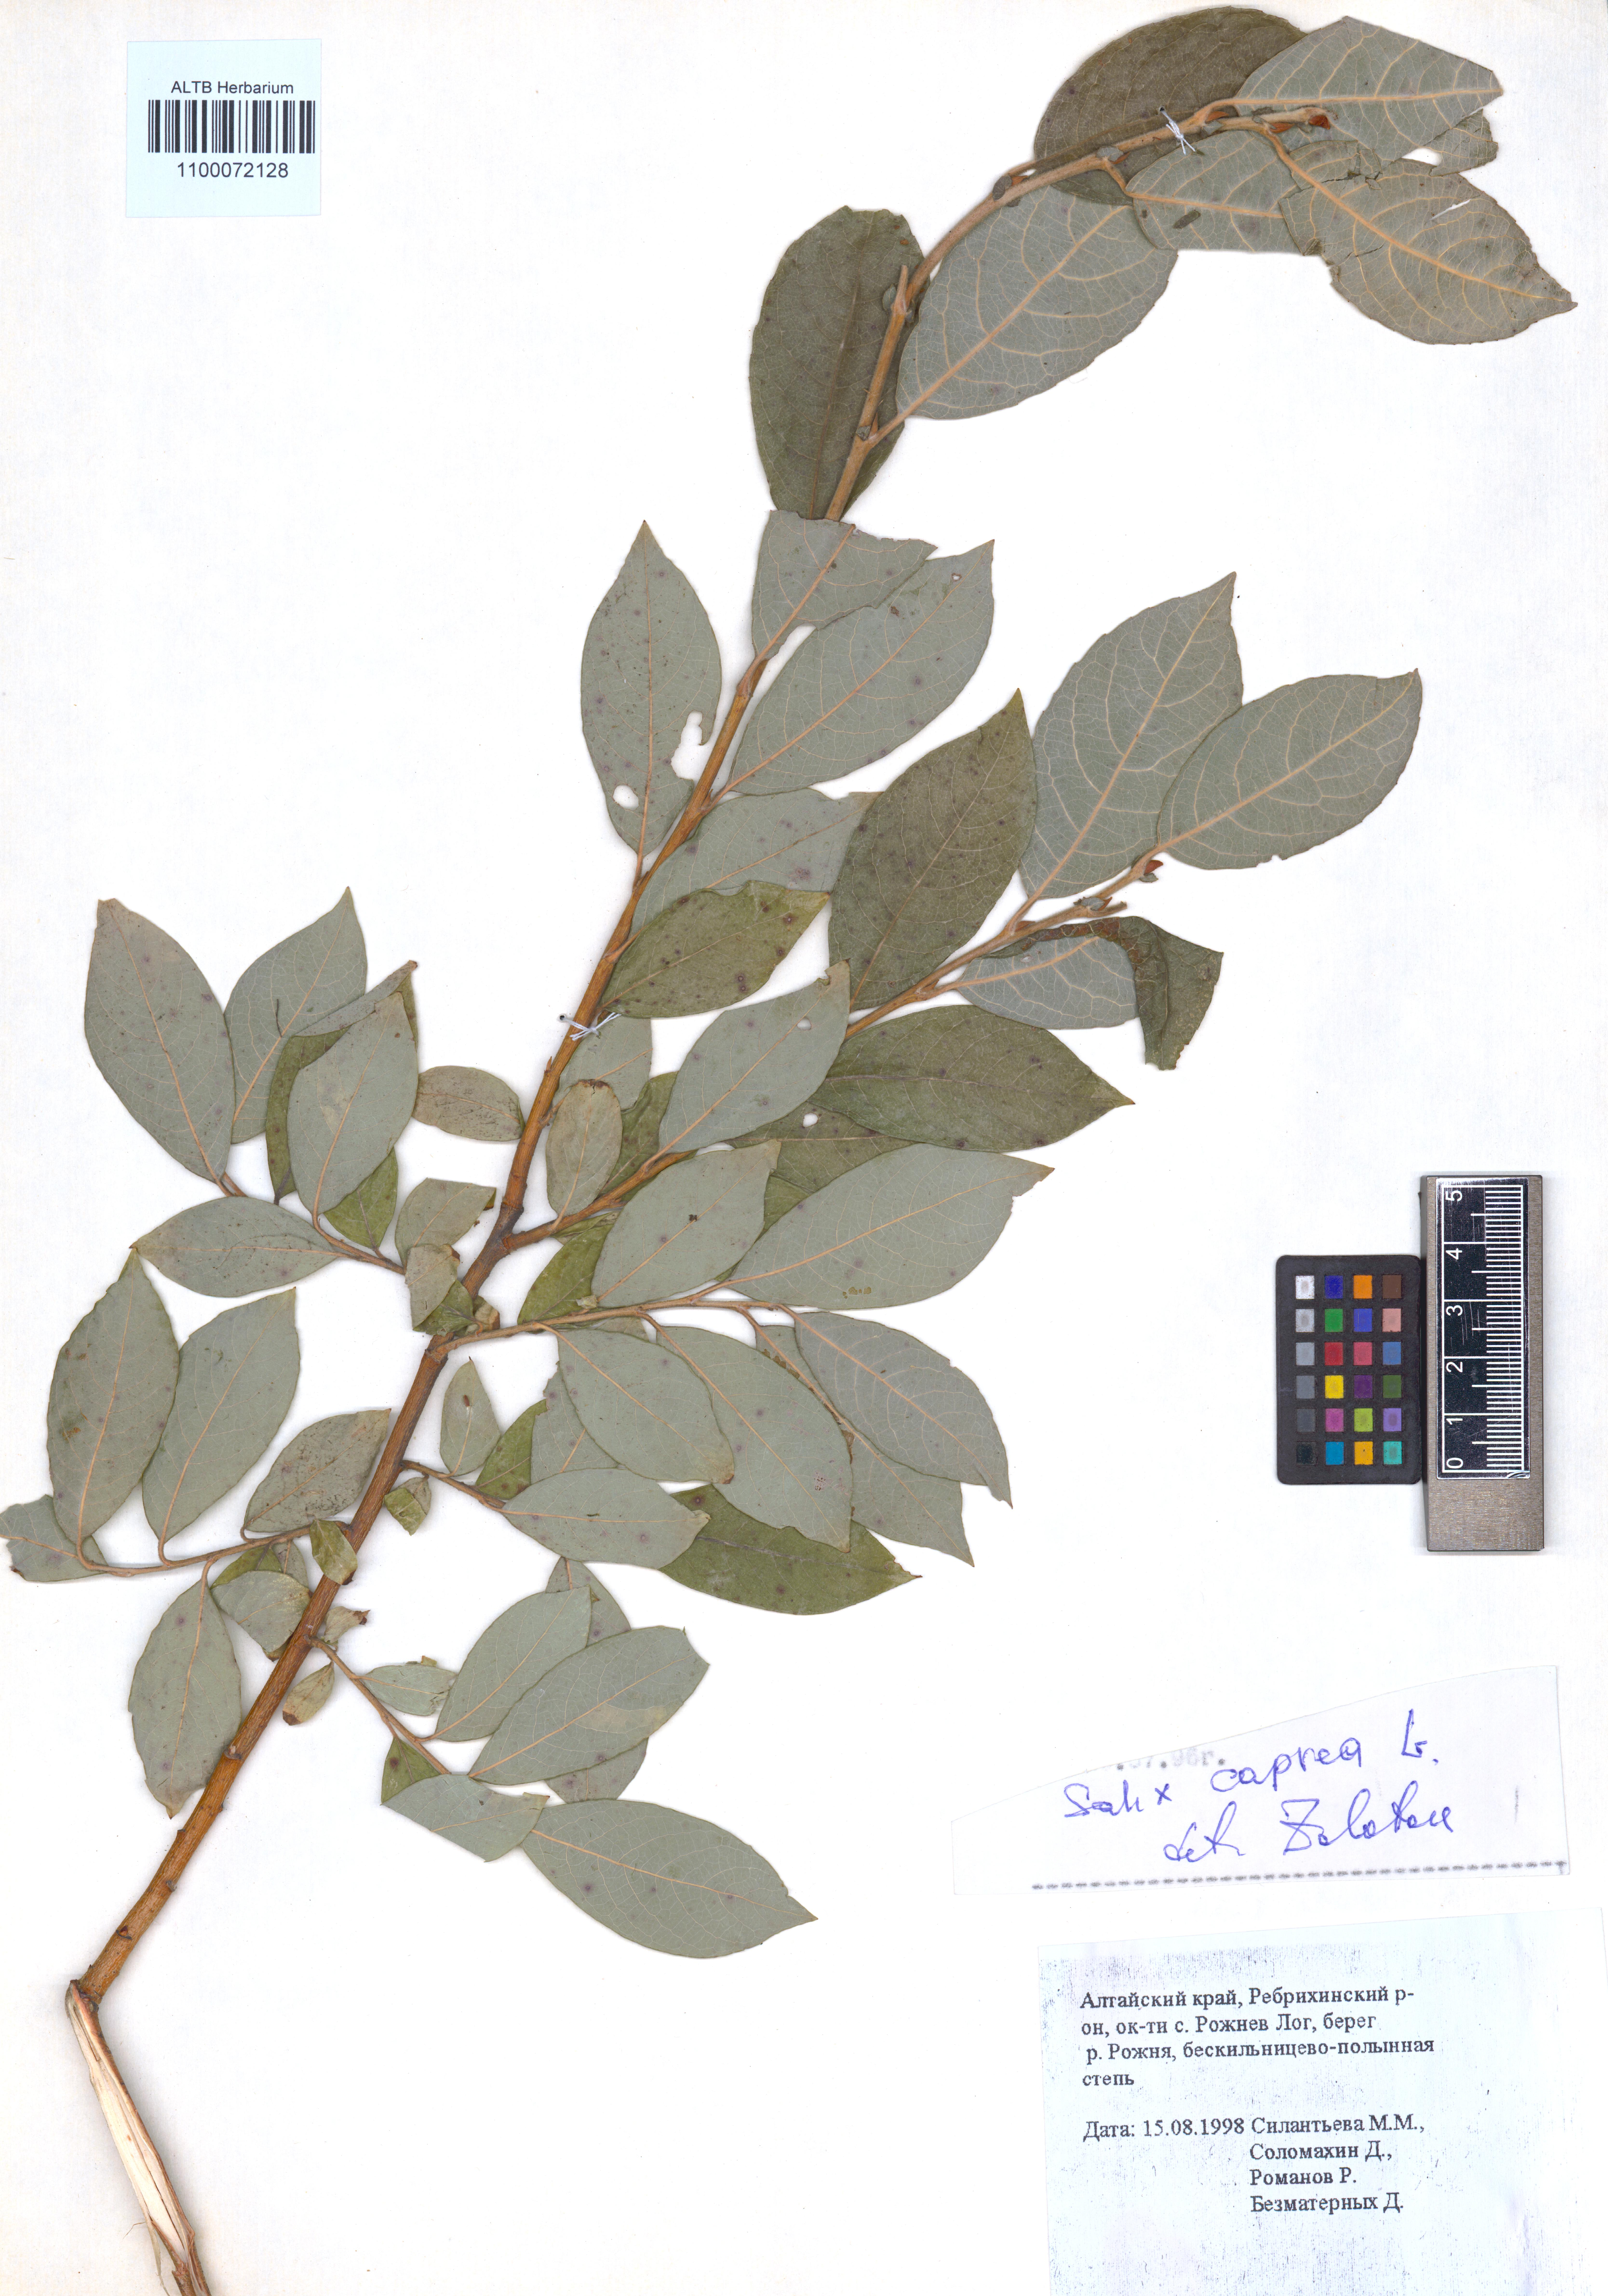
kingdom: Plantae
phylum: Tracheophyta
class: Magnoliopsida
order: Malpighiales
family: Salicaceae
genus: Salix
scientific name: Salix caprea
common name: Goat willow
